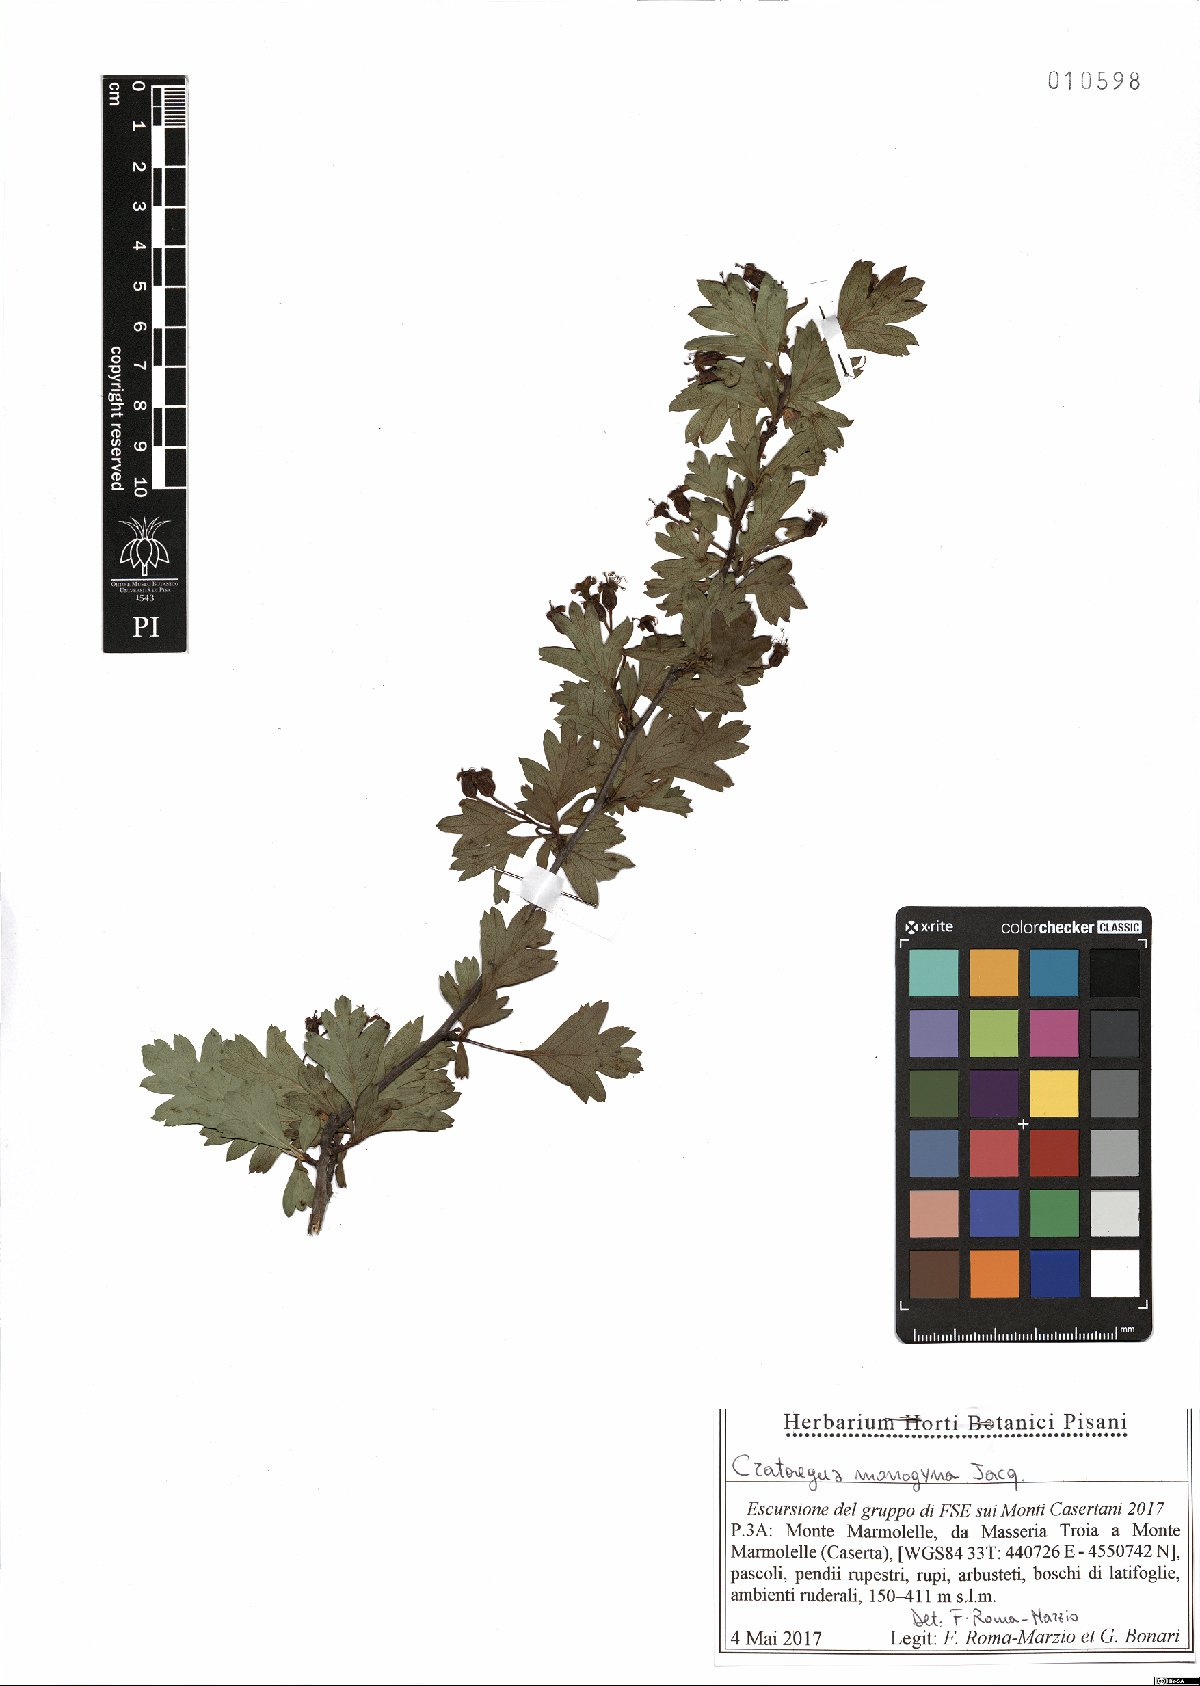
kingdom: Plantae
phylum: Tracheophyta
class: Magnoliopsida
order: Rosales
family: Rosaceae
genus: Crataegus
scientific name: Crataegus monogyna
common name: Hawthorn
